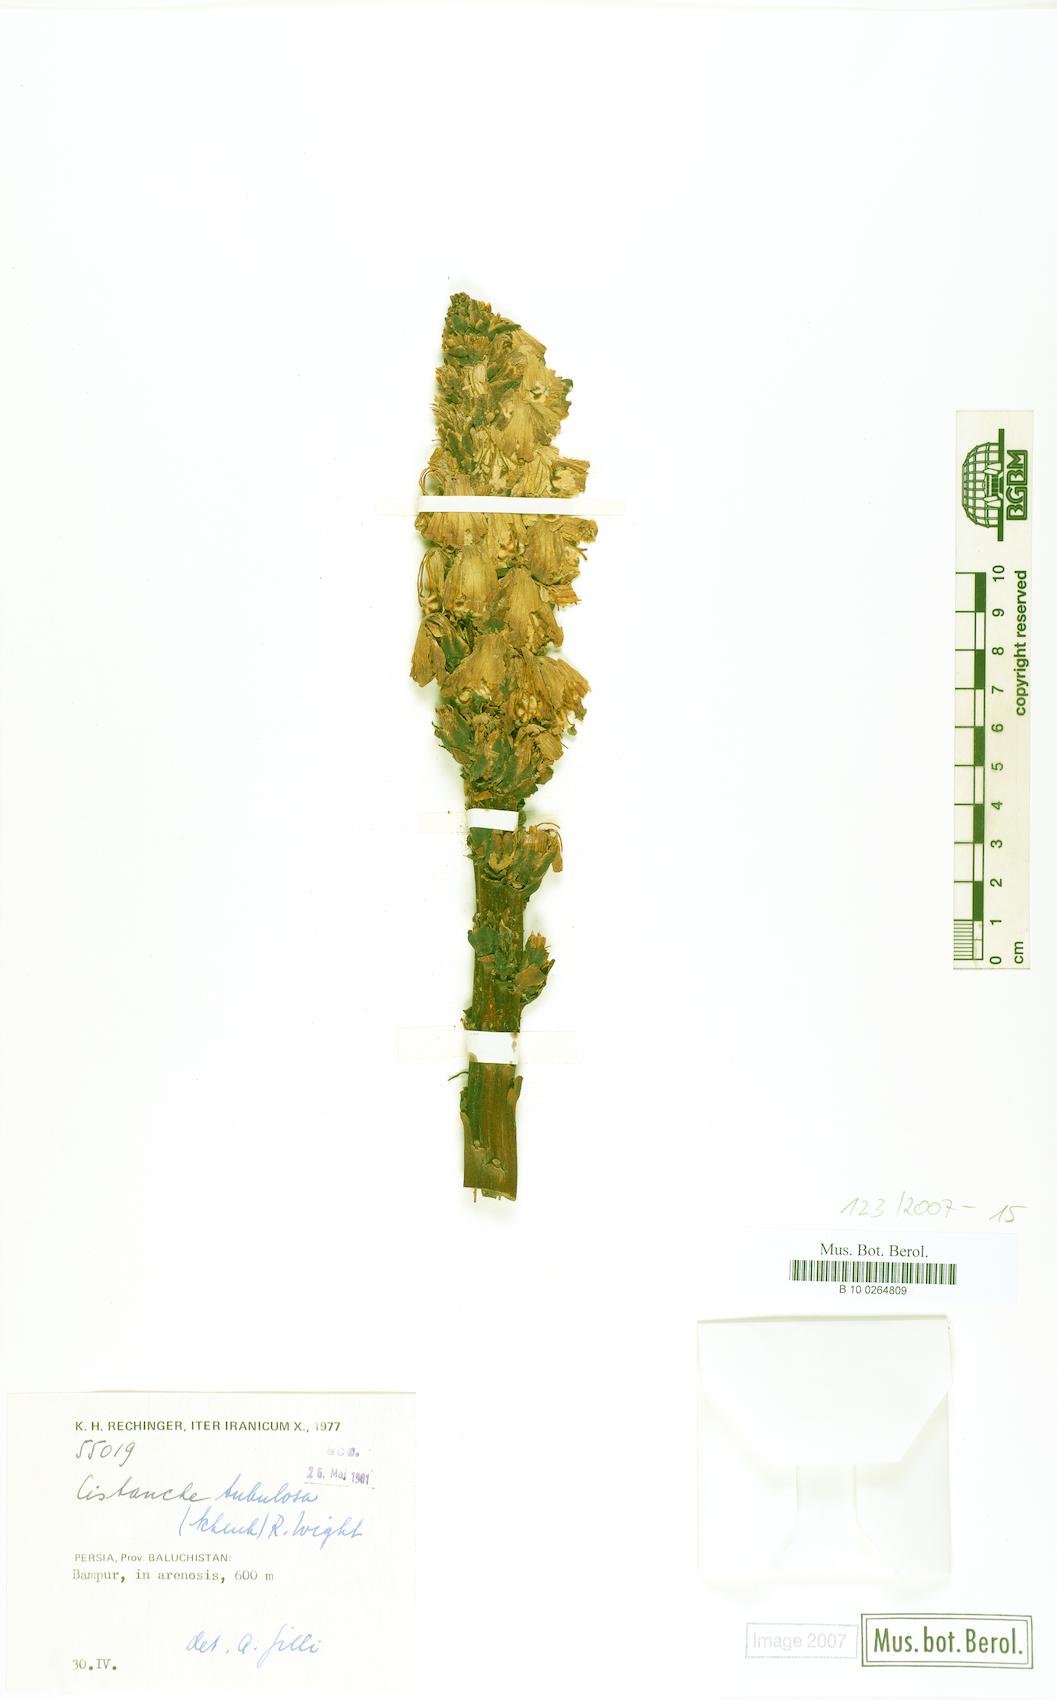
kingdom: Plantae
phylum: Tracheophyta
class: Magnoliopsida
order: Lamiales
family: Orobanchaceae
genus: Cistanche
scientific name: Cistanche tubulosa
